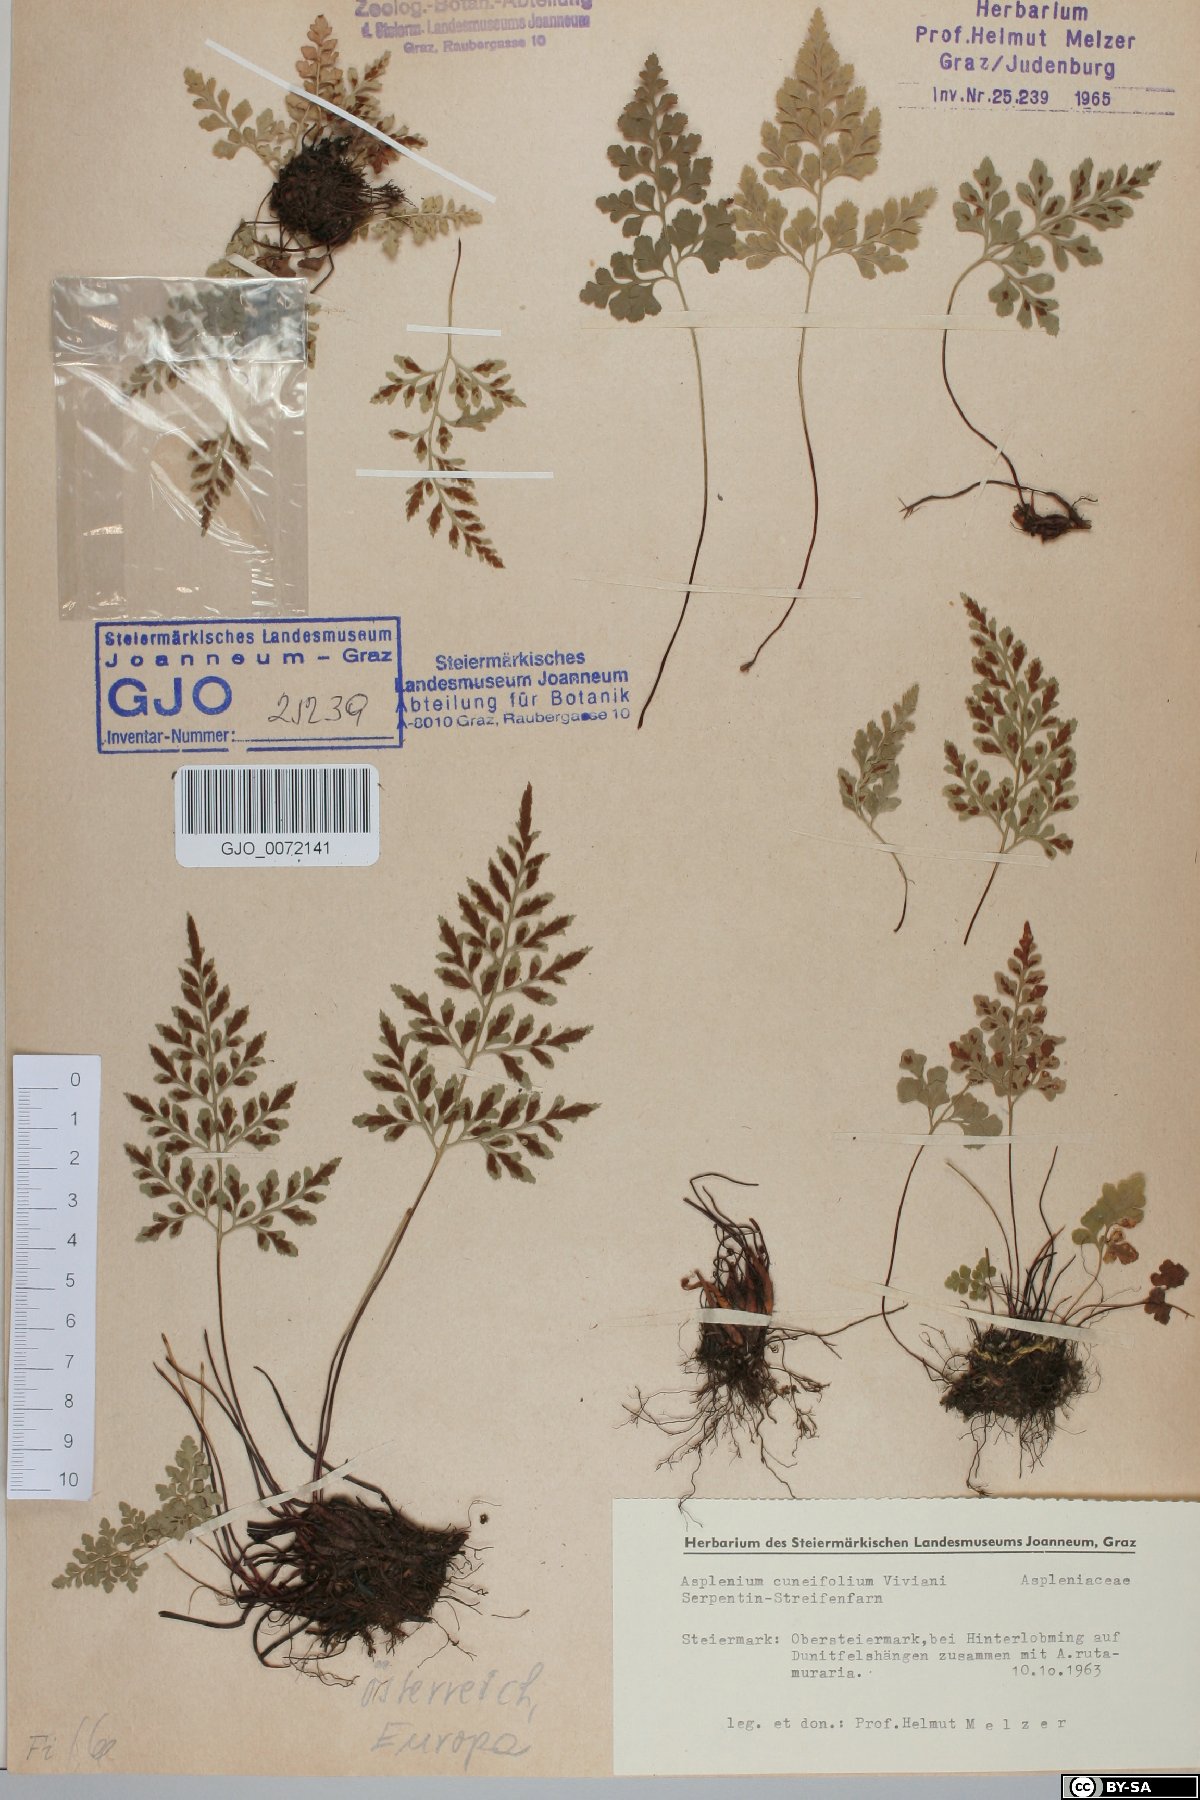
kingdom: Plantae
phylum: Tracheophyta
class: Polypodiopsida
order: Polypodiales
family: Aspleniaceae
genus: Asplenium
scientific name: Asplenium cuneifolium
